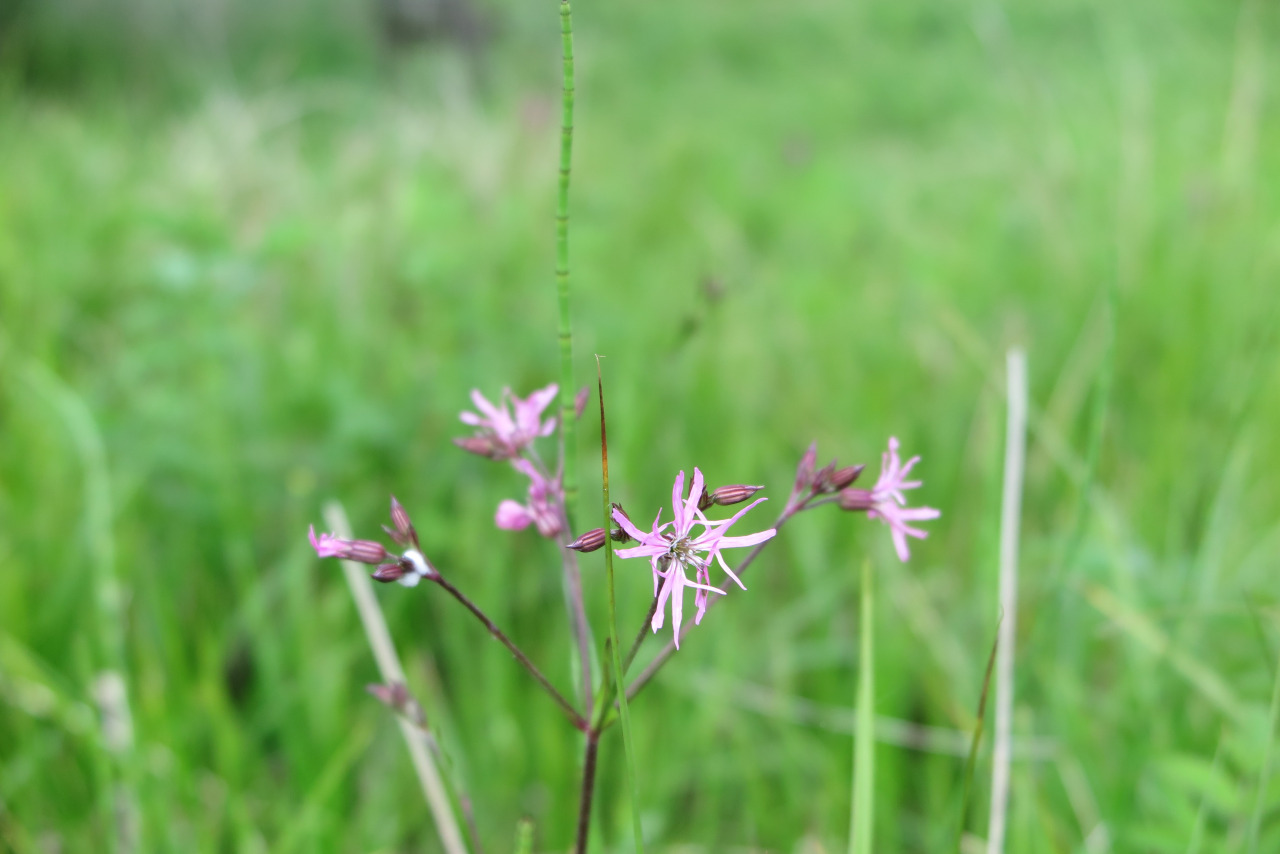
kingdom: Plantae
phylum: Tracheophyta
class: Magnoliopsida
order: Caryophyllales
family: Caryophyllaceae
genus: Silene
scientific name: Silene flos-cuculi
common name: Trævlekrone
